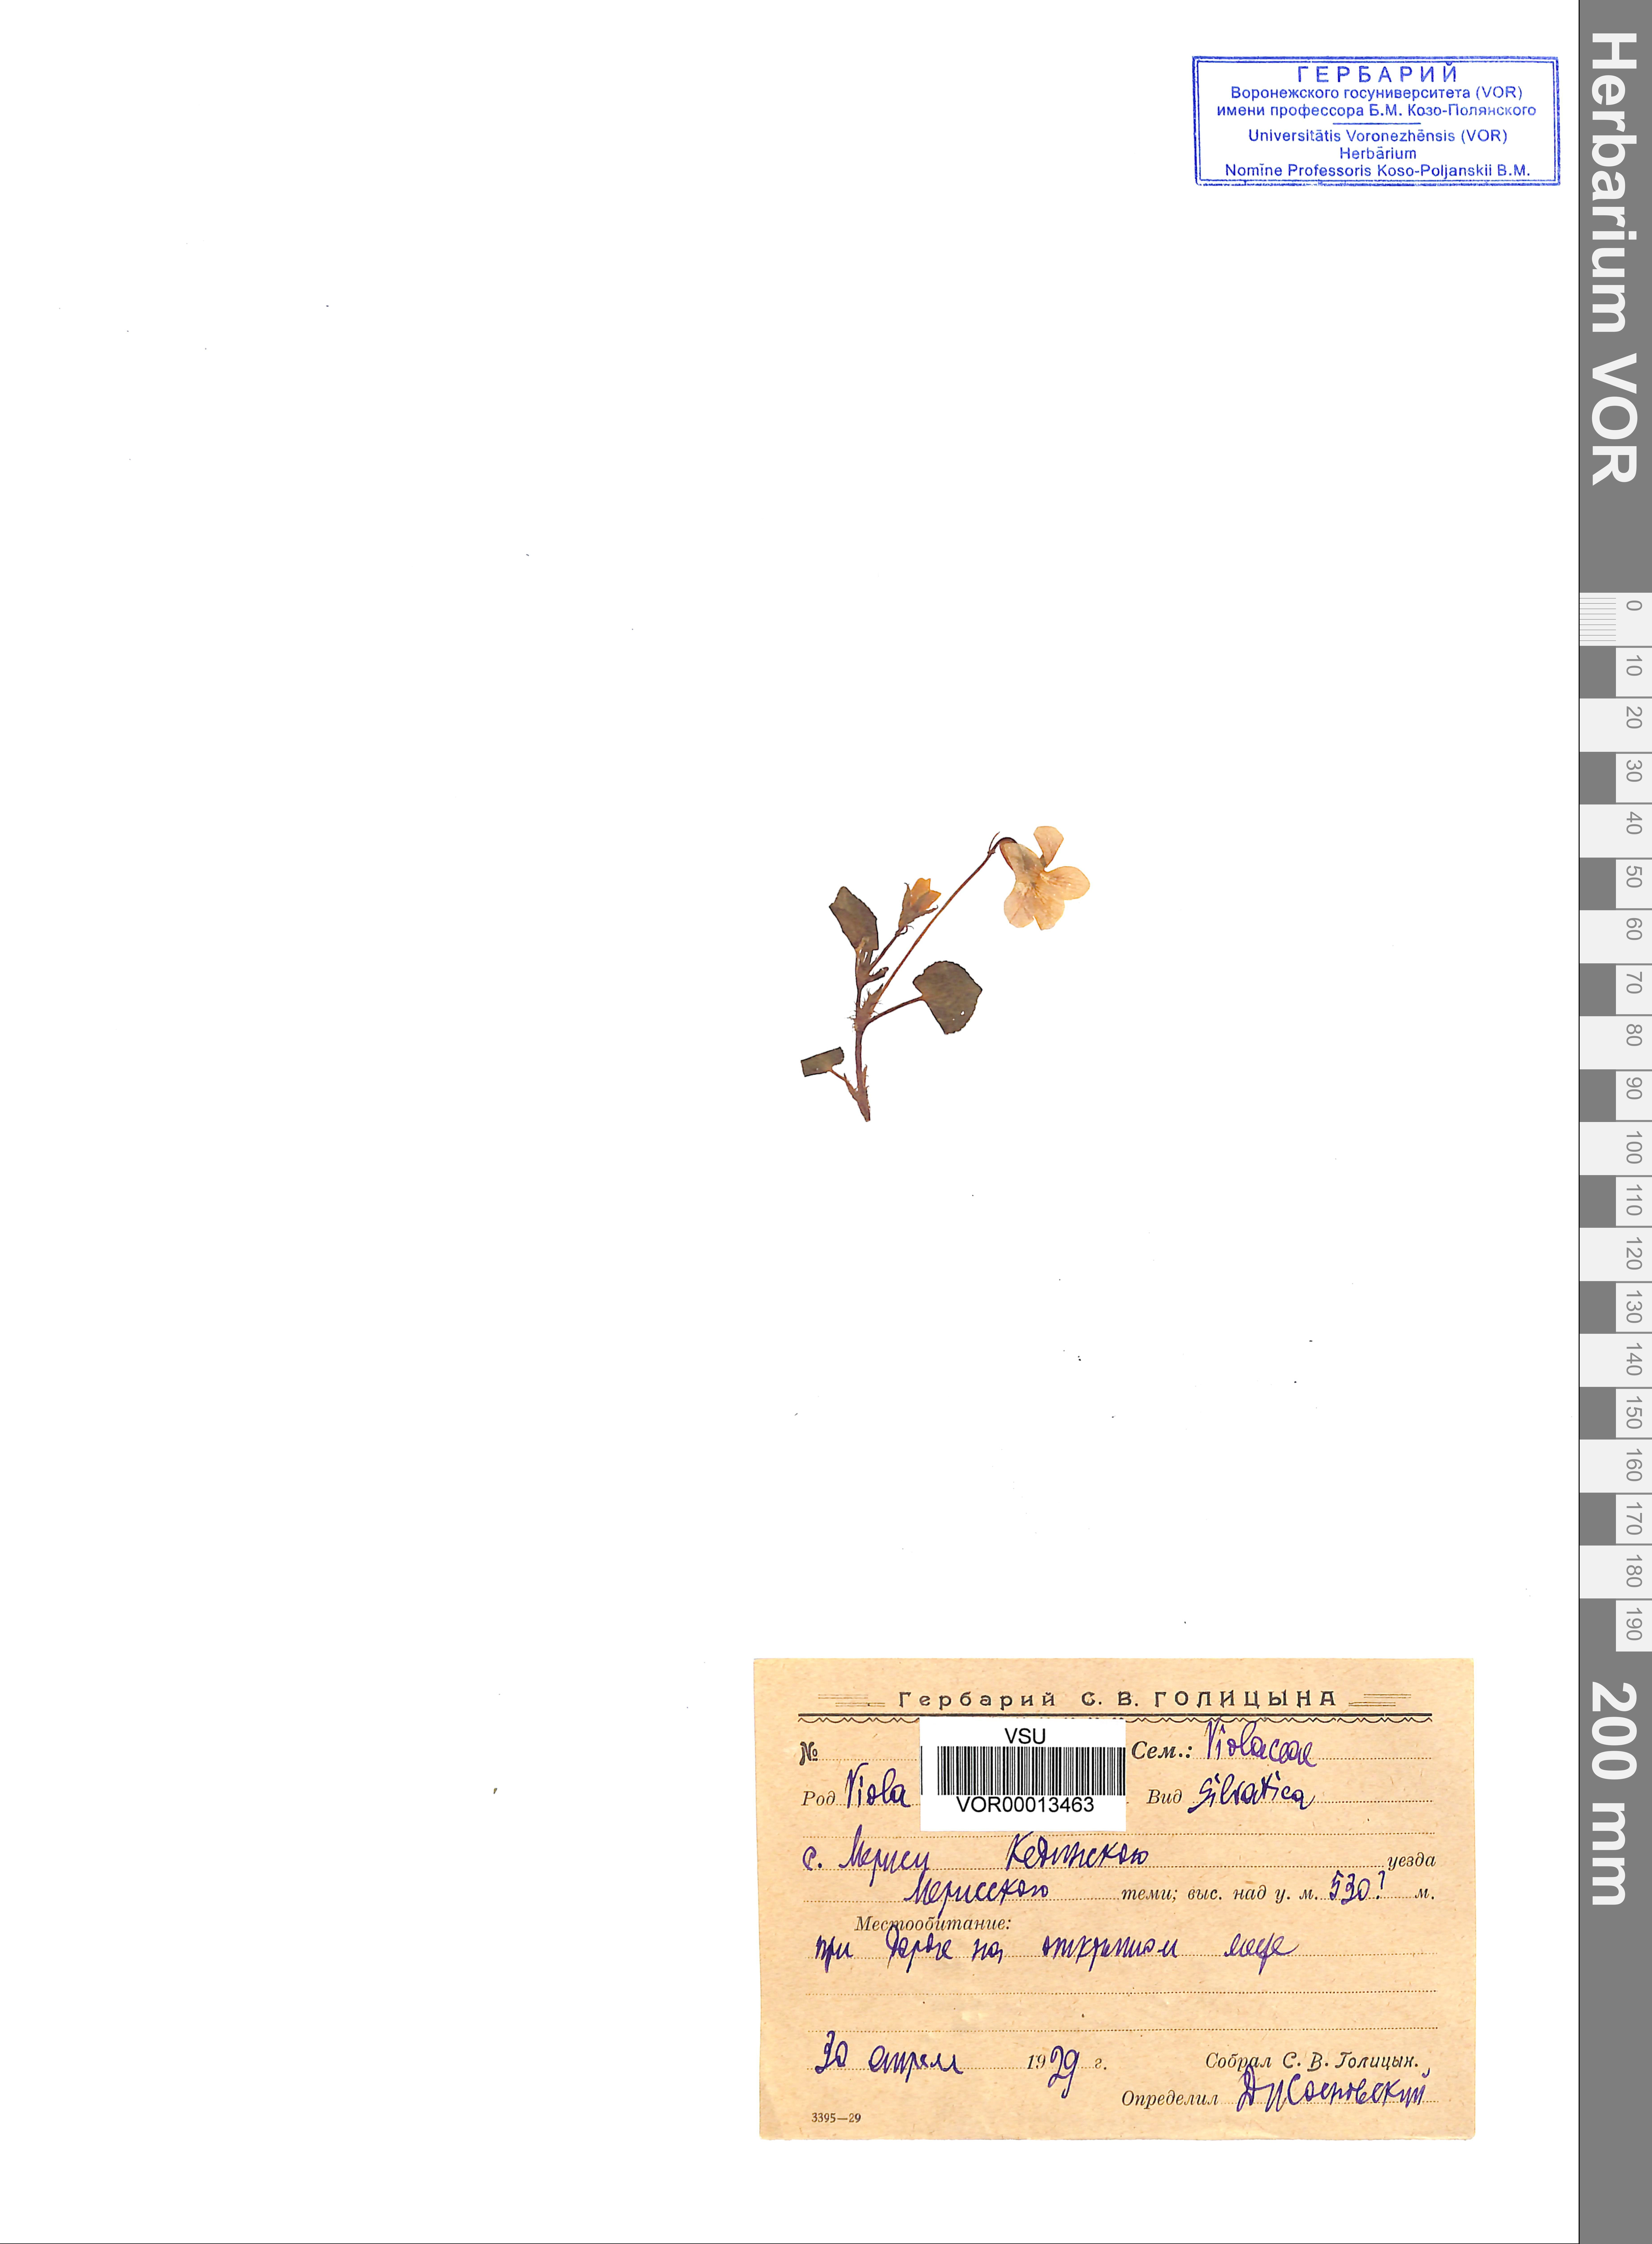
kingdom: Plantae
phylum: Tracheophyta
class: Magnoliopsida
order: Malpighiales
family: Violaceae
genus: Viola
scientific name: Viola riviniana
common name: Common dog-violet
